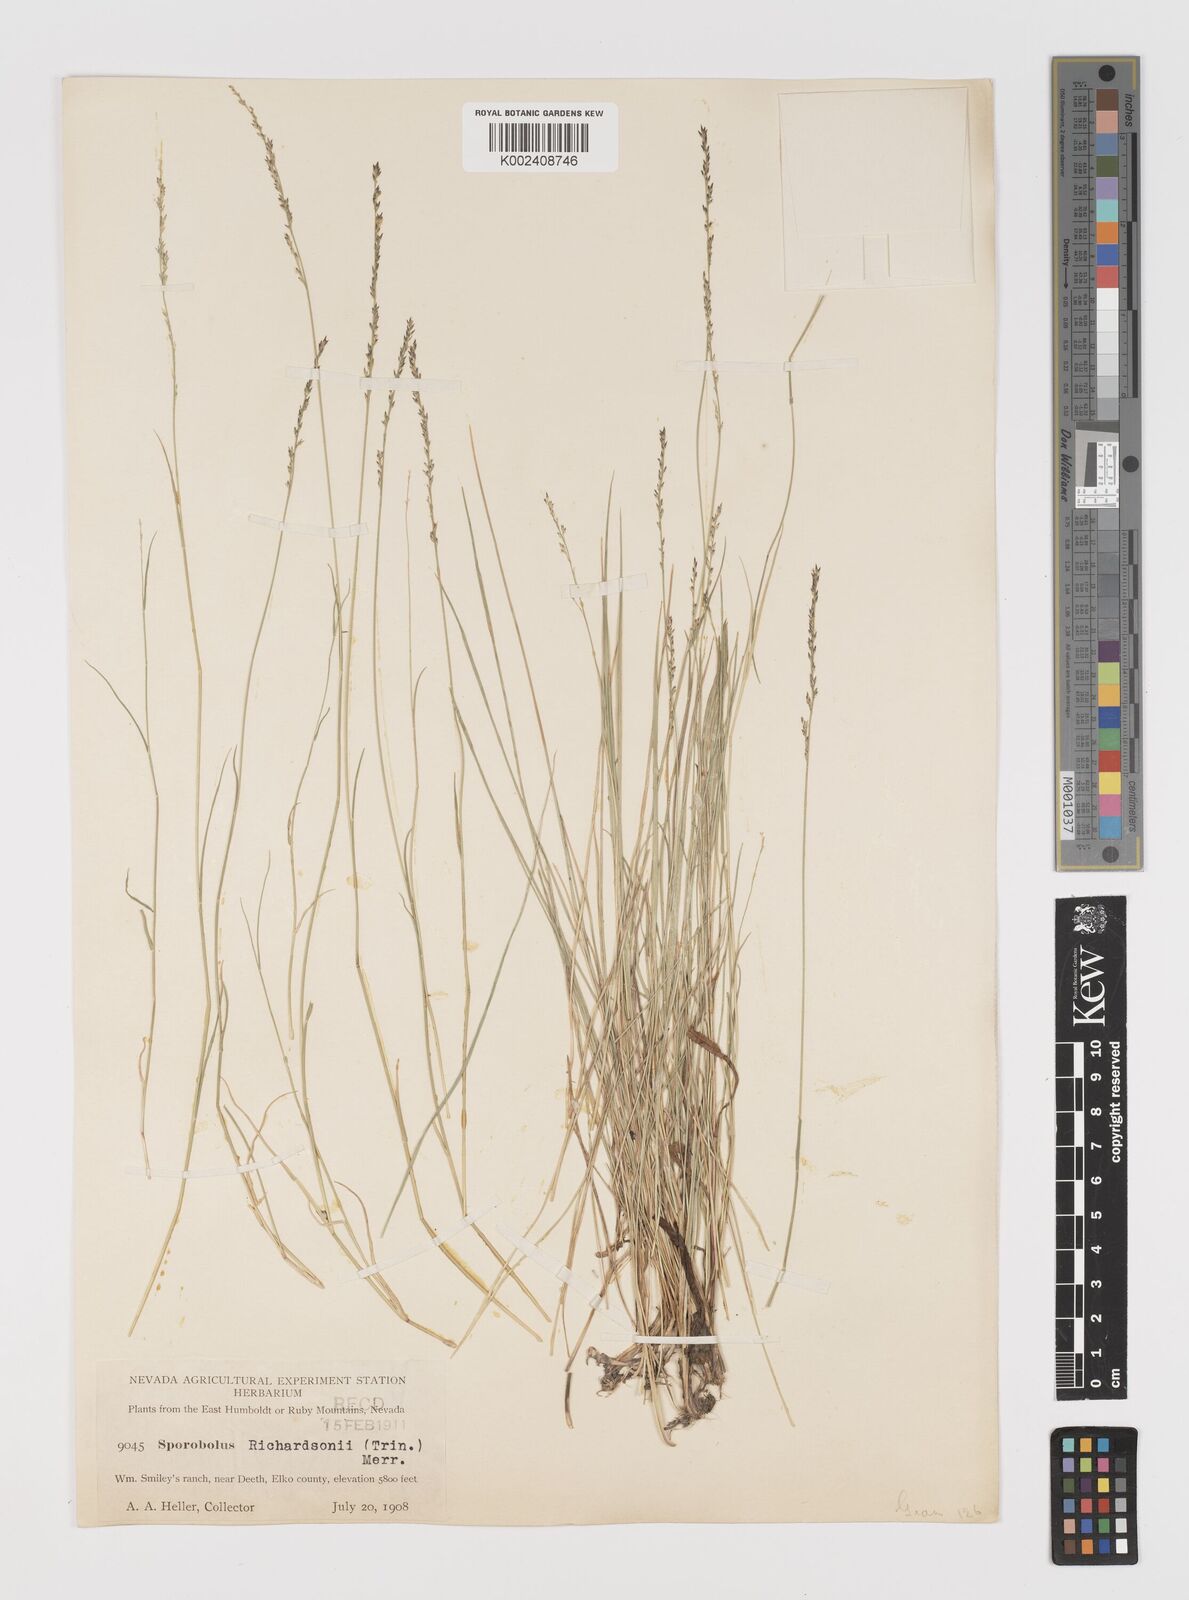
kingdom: Plantae
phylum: Tracheophyta
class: Liliopsida
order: Poales
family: Poaceae
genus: Muhlenbergia
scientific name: Muhlenbergia richardsonis
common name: Mat muhly
